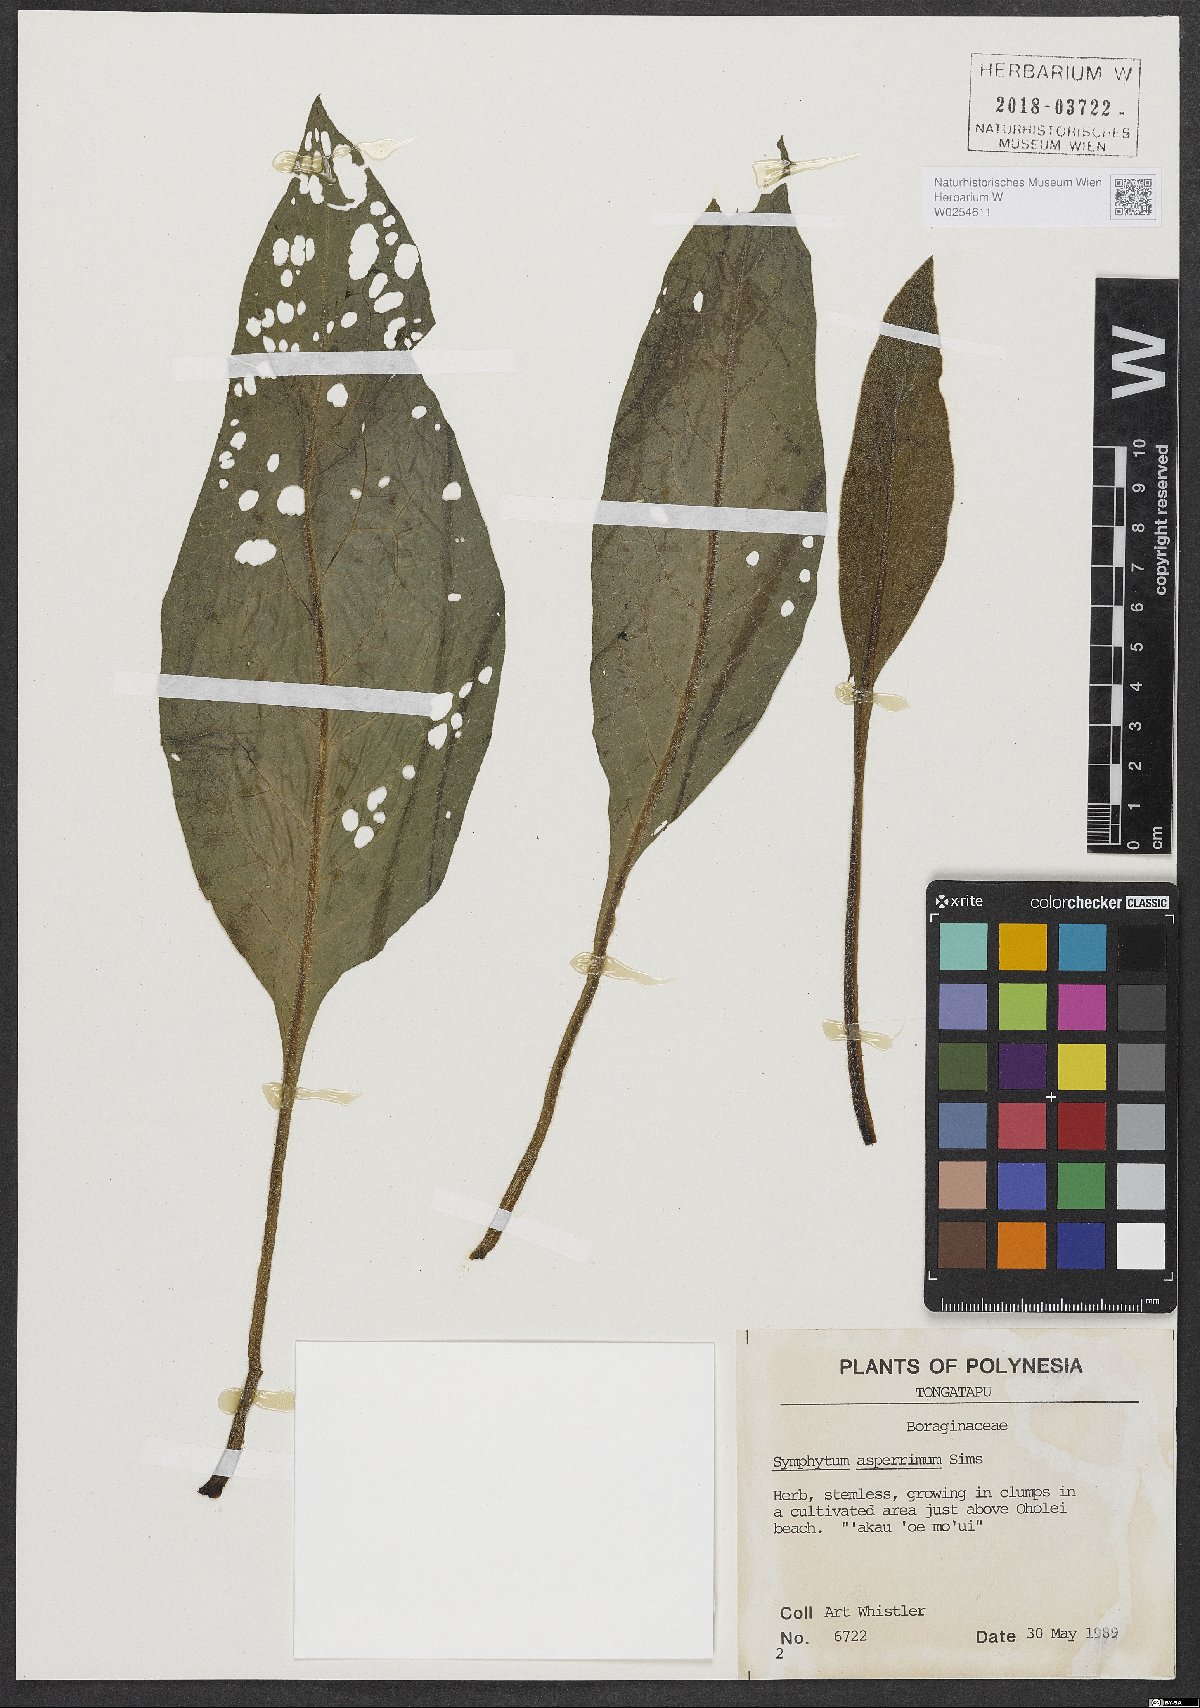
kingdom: Plantae
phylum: Tracheophyta
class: Magnoliopsida
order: Boraginales
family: Boraginaceae
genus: Symphytum
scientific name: Symphytum asperum
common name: Prickly comfrey
